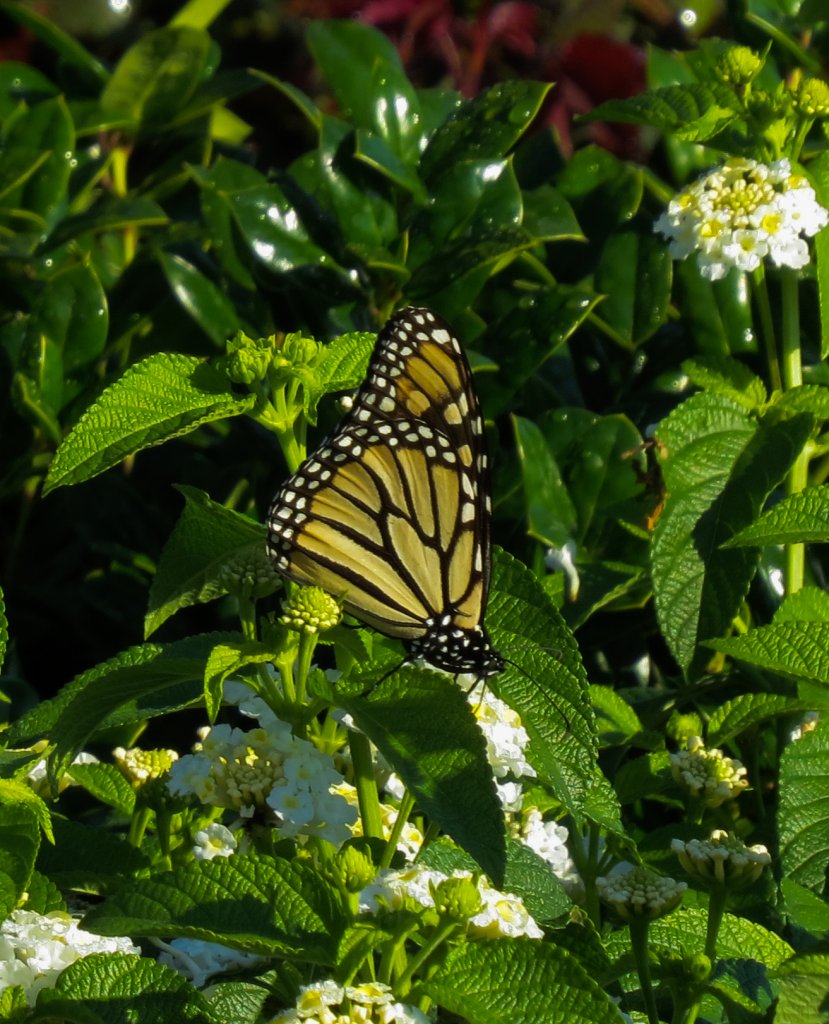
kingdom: Animalia
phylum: Arthropoda
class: Insecta
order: Lepidoptera
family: Nymphalidae
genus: Danaus
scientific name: Danaus plexippus
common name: Monarch
